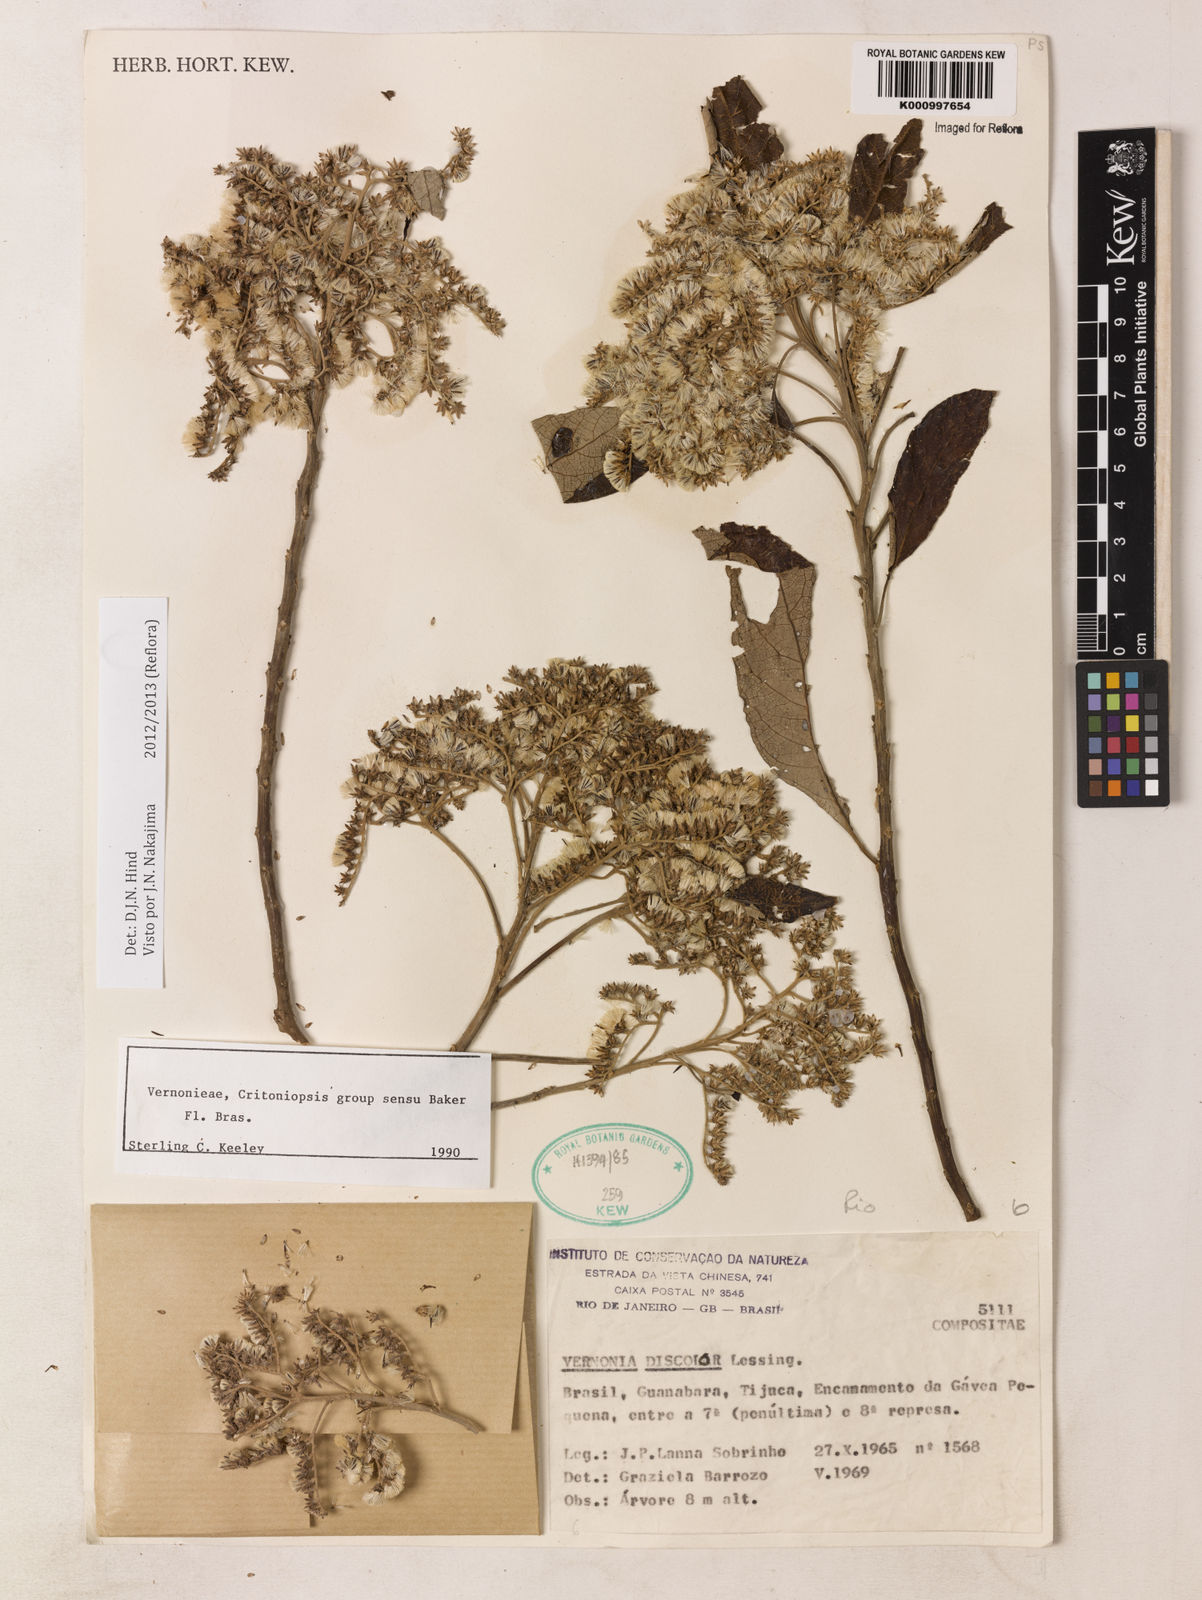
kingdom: Plantae
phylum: Tracheophyta
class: Magnoliopsida
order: Asterales
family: Asteraceae
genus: Vernonanthura
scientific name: Vernonanthura discolor
